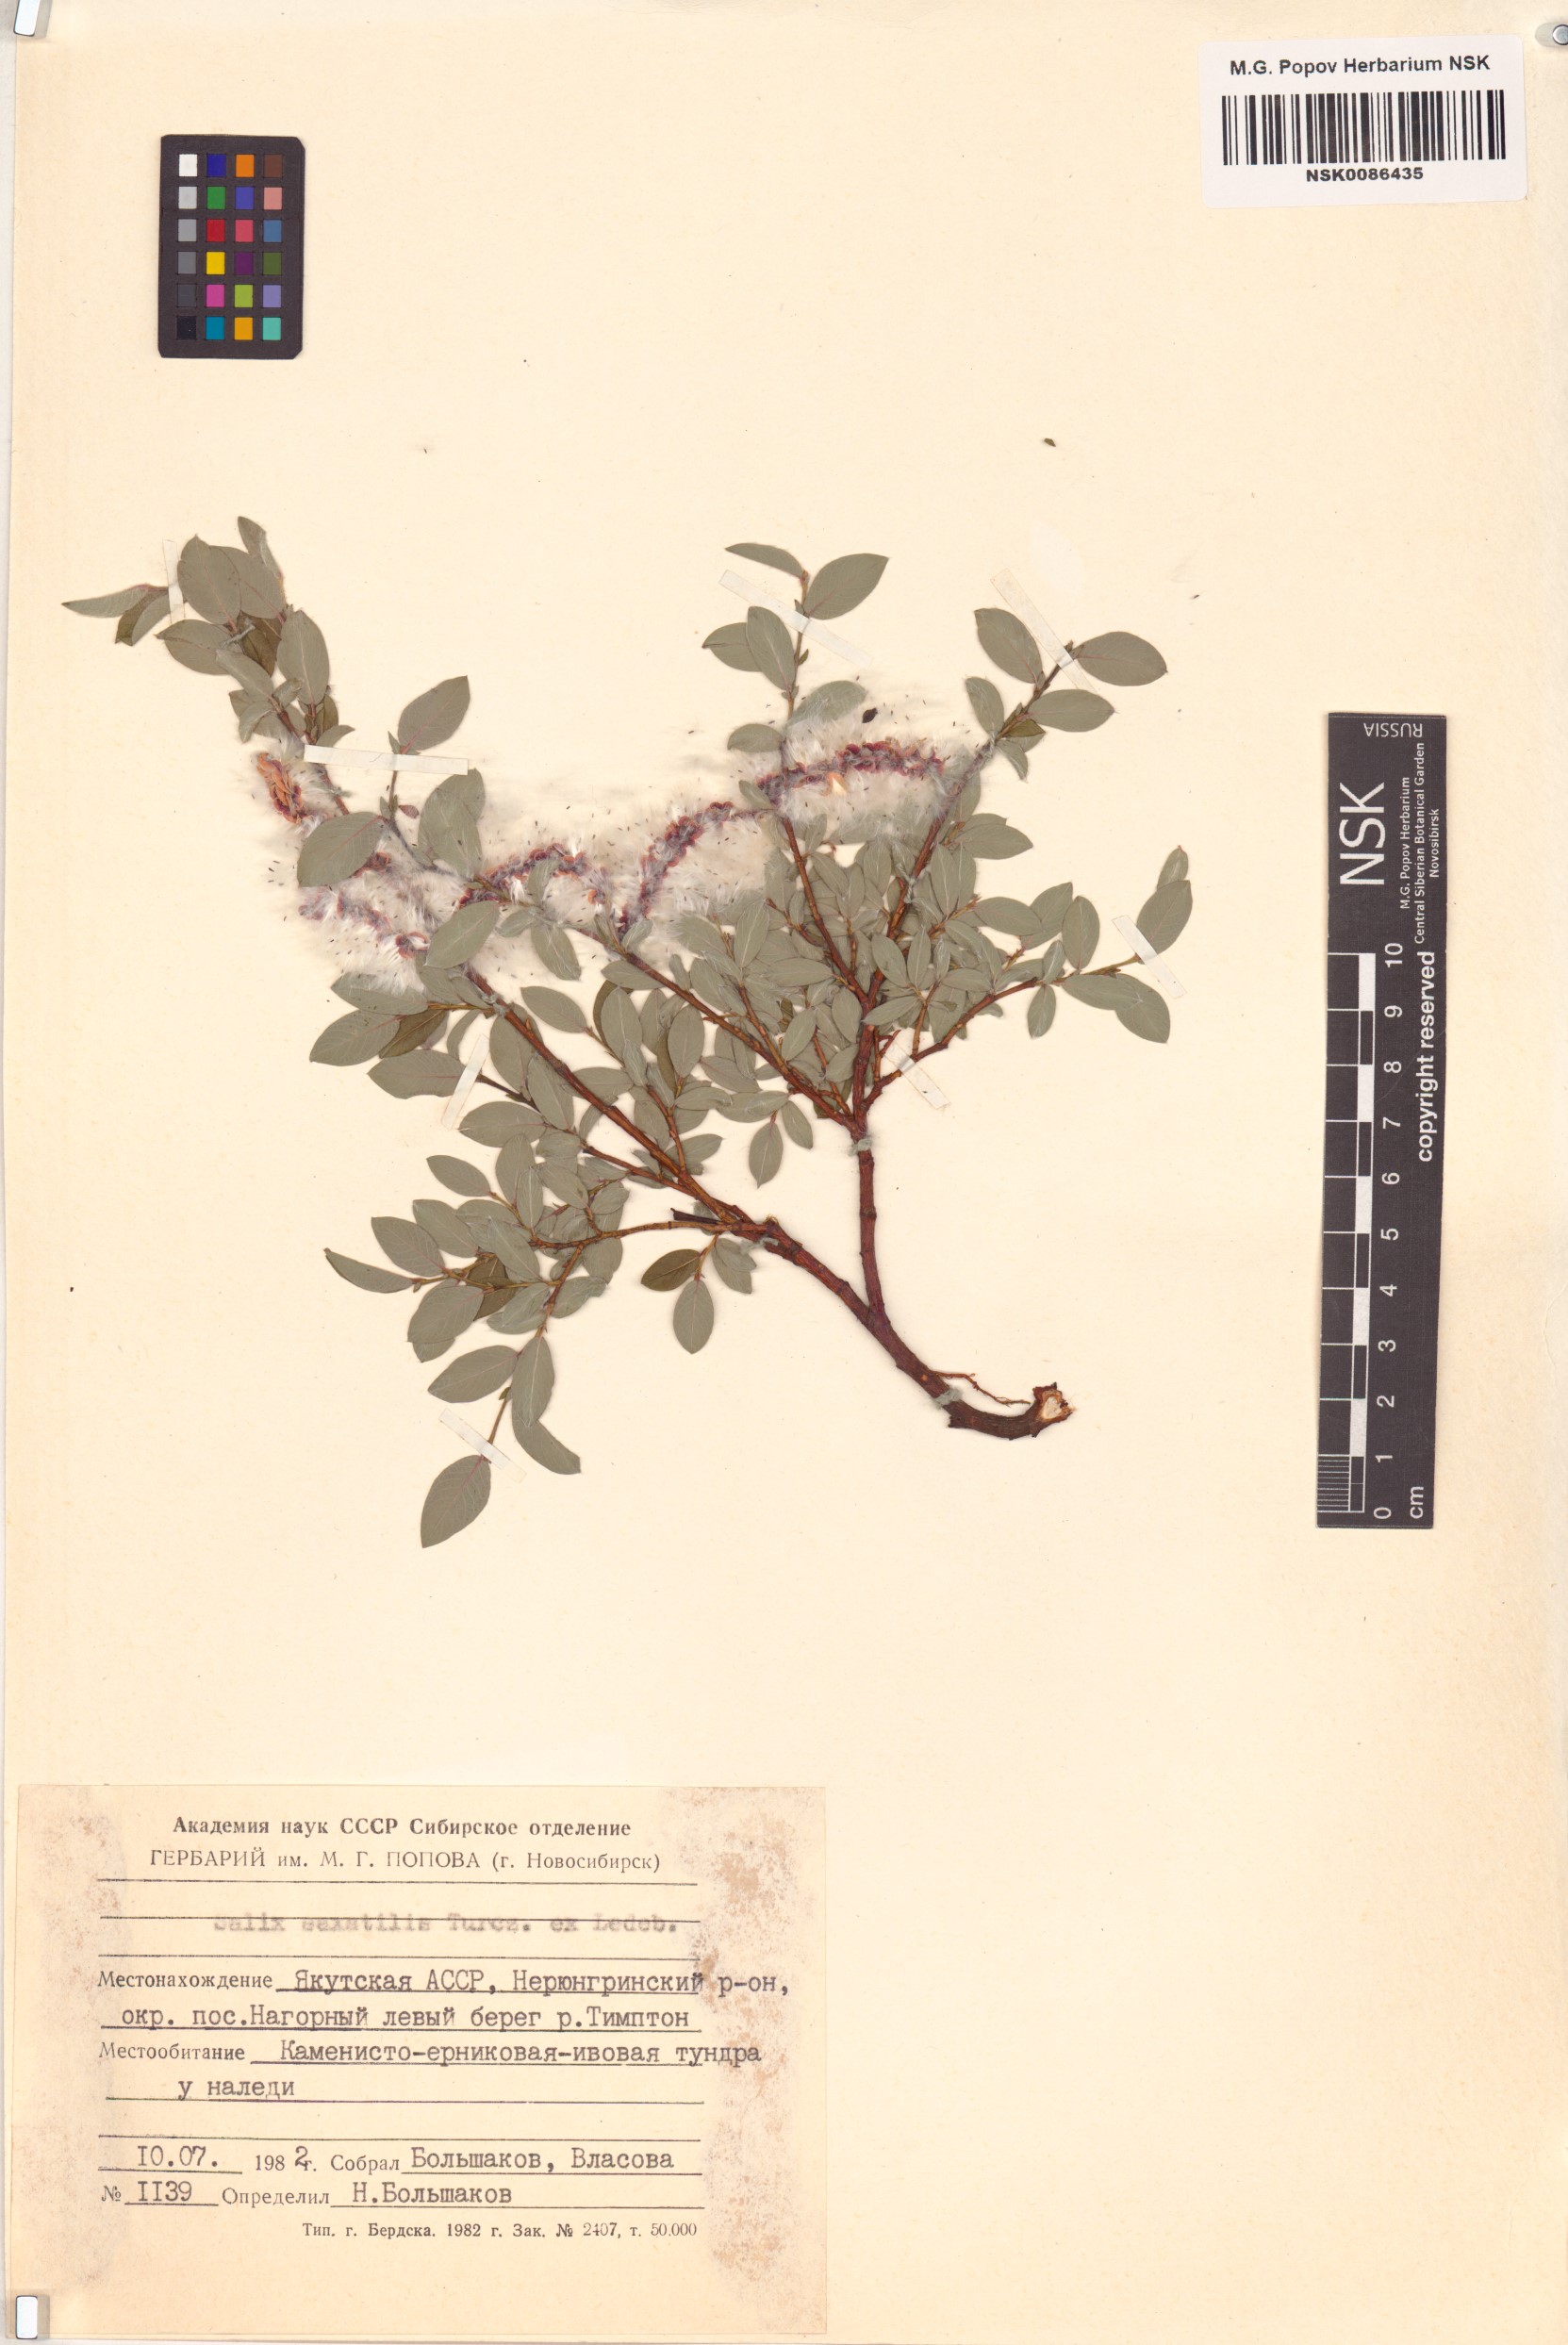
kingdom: Plantae
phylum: Tracheophyta
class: Magnoliopsida
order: Malpighiales
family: Salicaceae
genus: Salix
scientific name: Salix saxatilis
